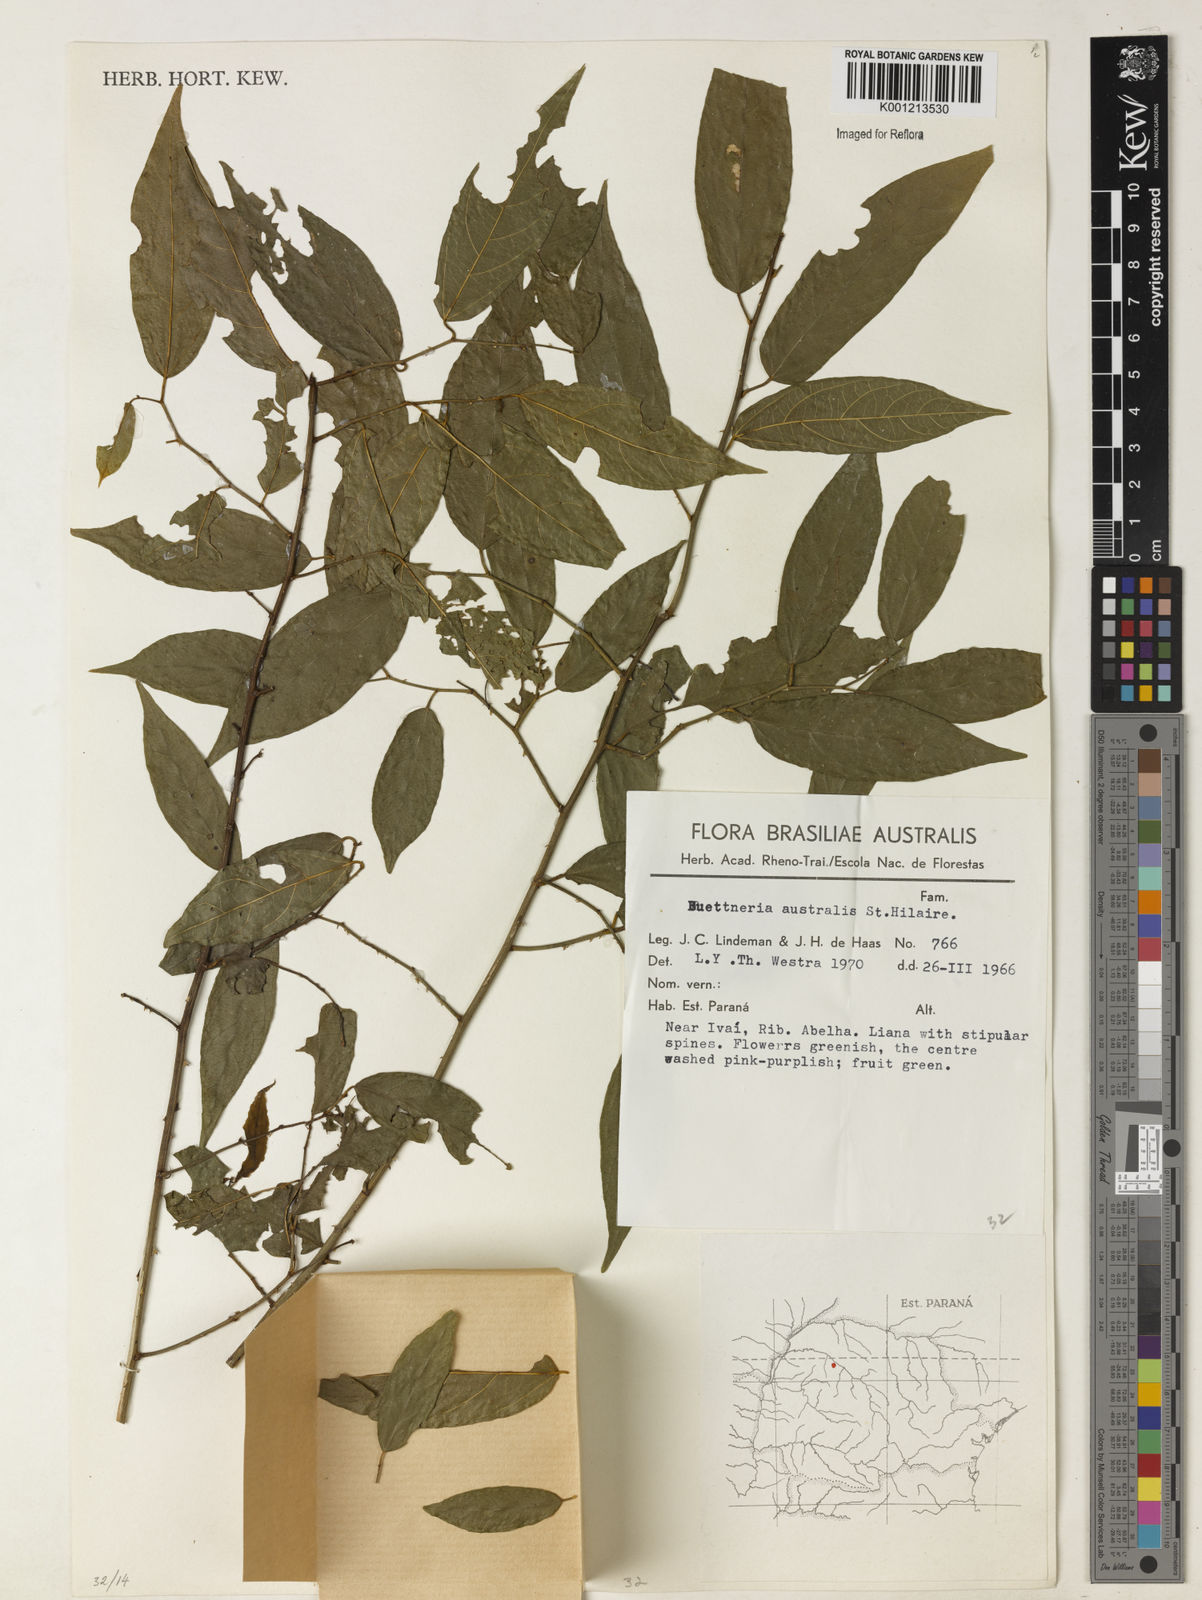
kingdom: Plantae
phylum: Tracheophyta
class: Magnoliopsida
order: Malvales
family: Malvaceae
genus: Byttneria
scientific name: Byttneria australis
